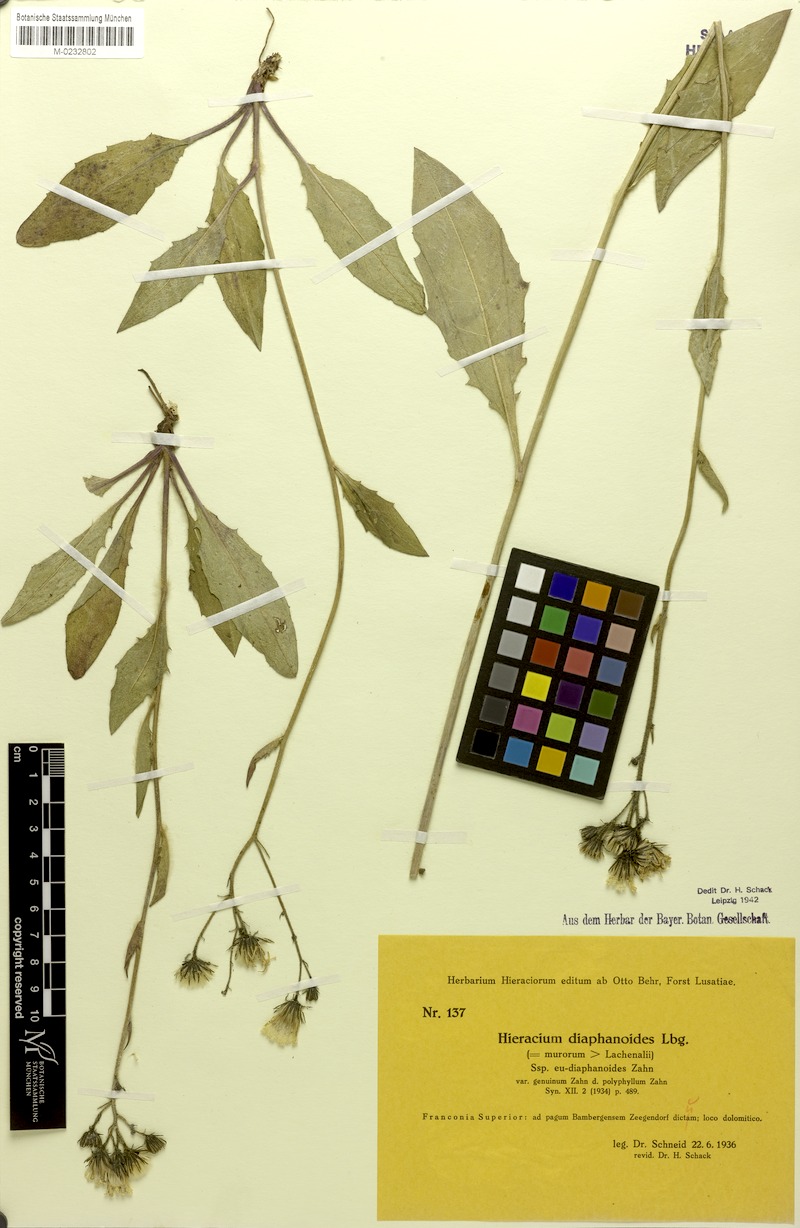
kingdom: Plantae
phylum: Tracheophyta
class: Magnoliopsida
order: Asterales
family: Asteraceae
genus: Hieracium
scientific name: Hieracium diaphanoides
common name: Fine-bracted hawkweed
